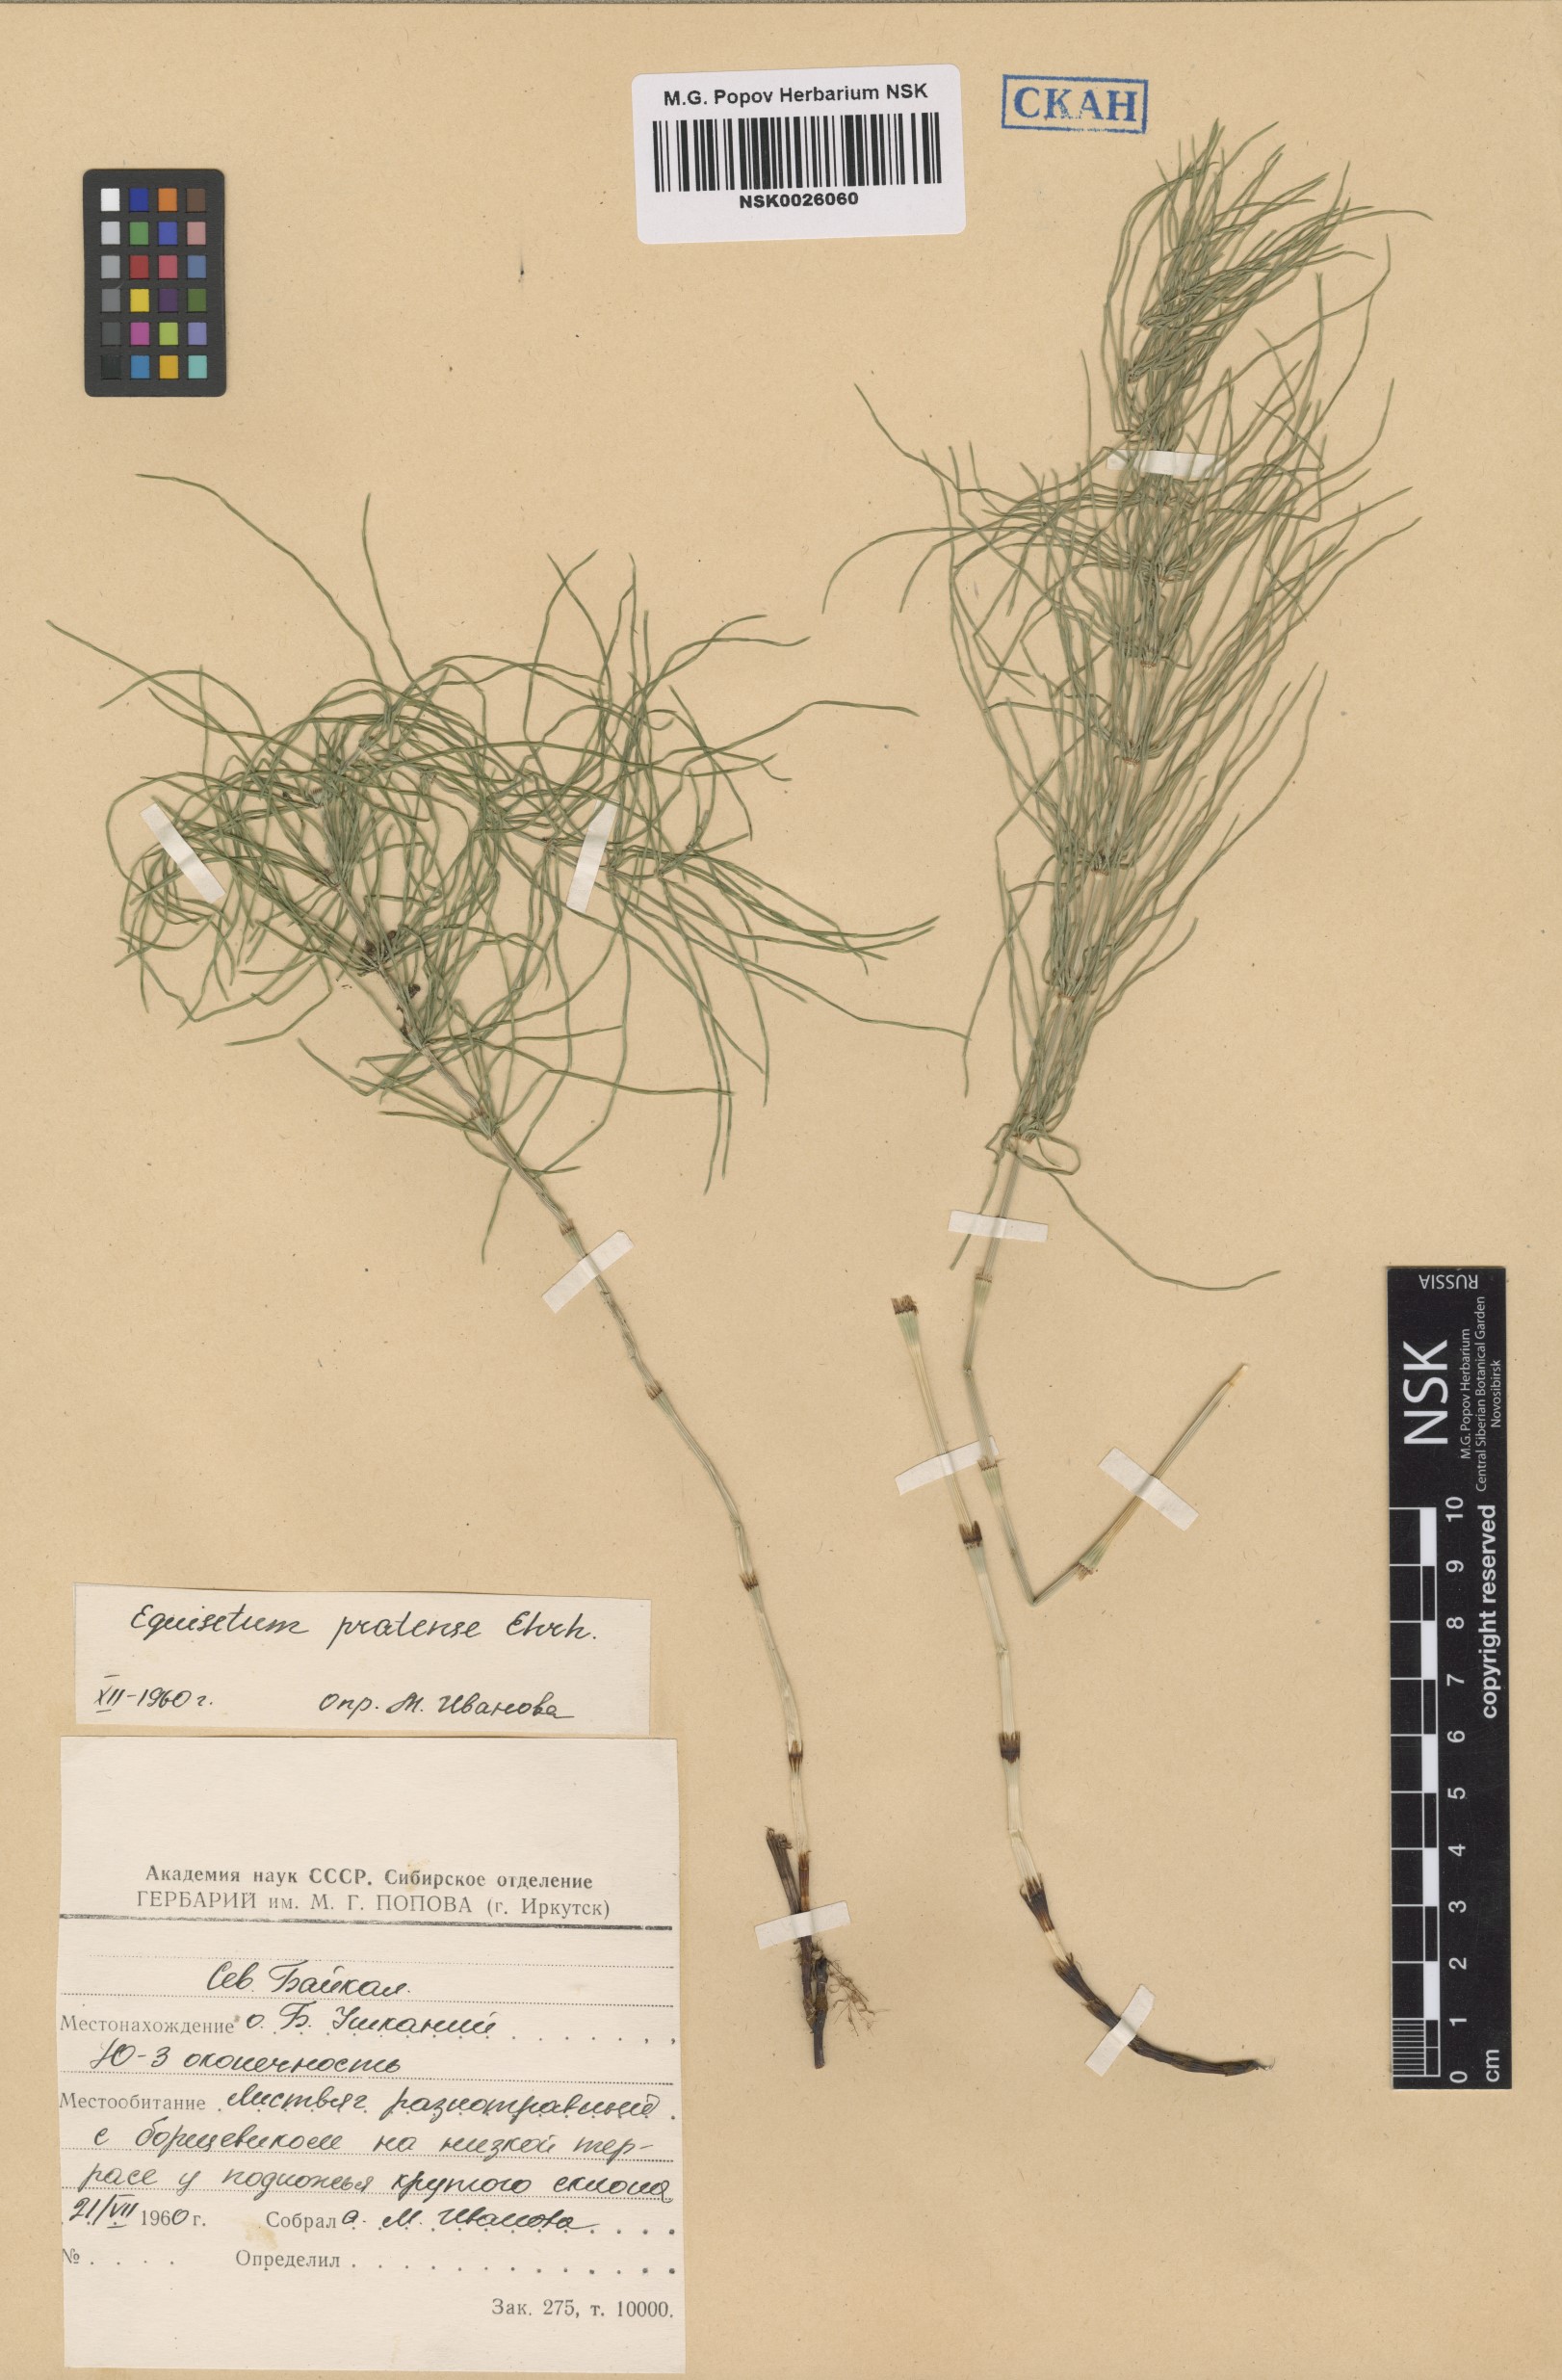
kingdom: Plantae
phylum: Tracheophyta
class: Polypodiopsida
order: Equisetales
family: Equisetaceae
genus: Equisetum
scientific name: Equisetum pratense
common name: Meadow horsetail
